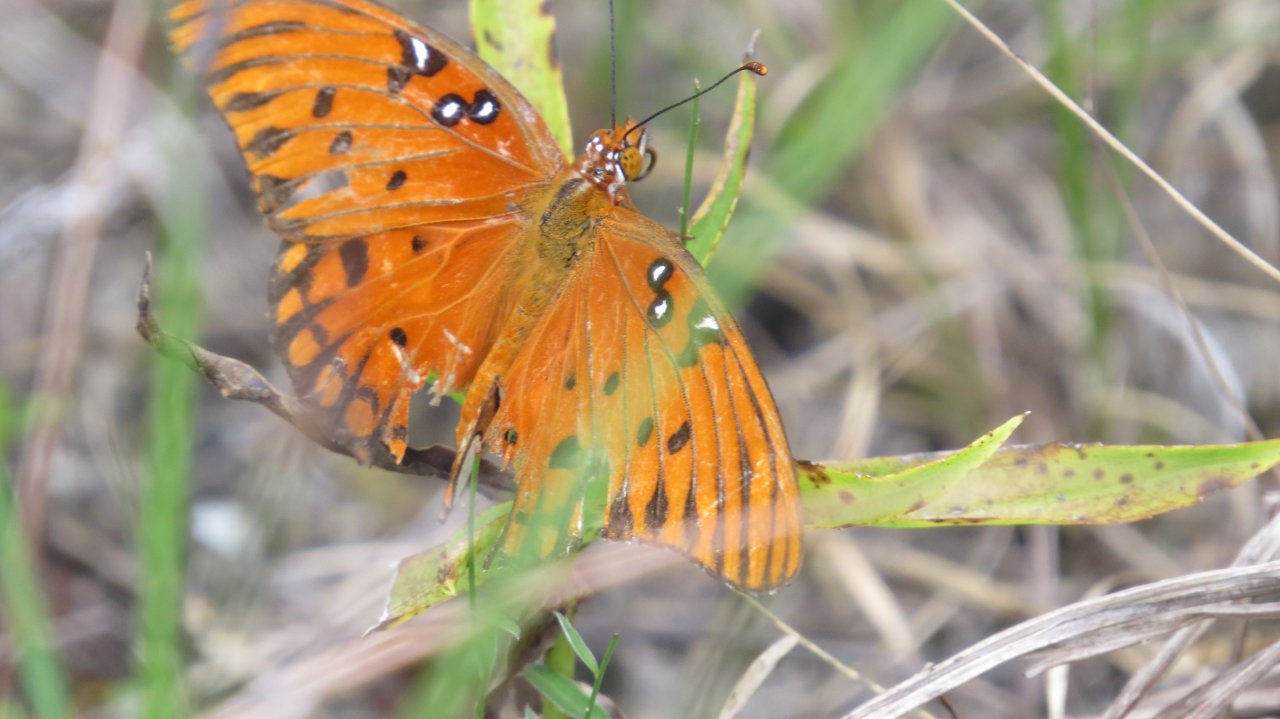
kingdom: Animalia
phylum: Arthropoda
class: Insecta
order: Lepidoptera
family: Nymphalidae
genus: Dione
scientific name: Dione vanillae
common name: Gulf Fritillary
